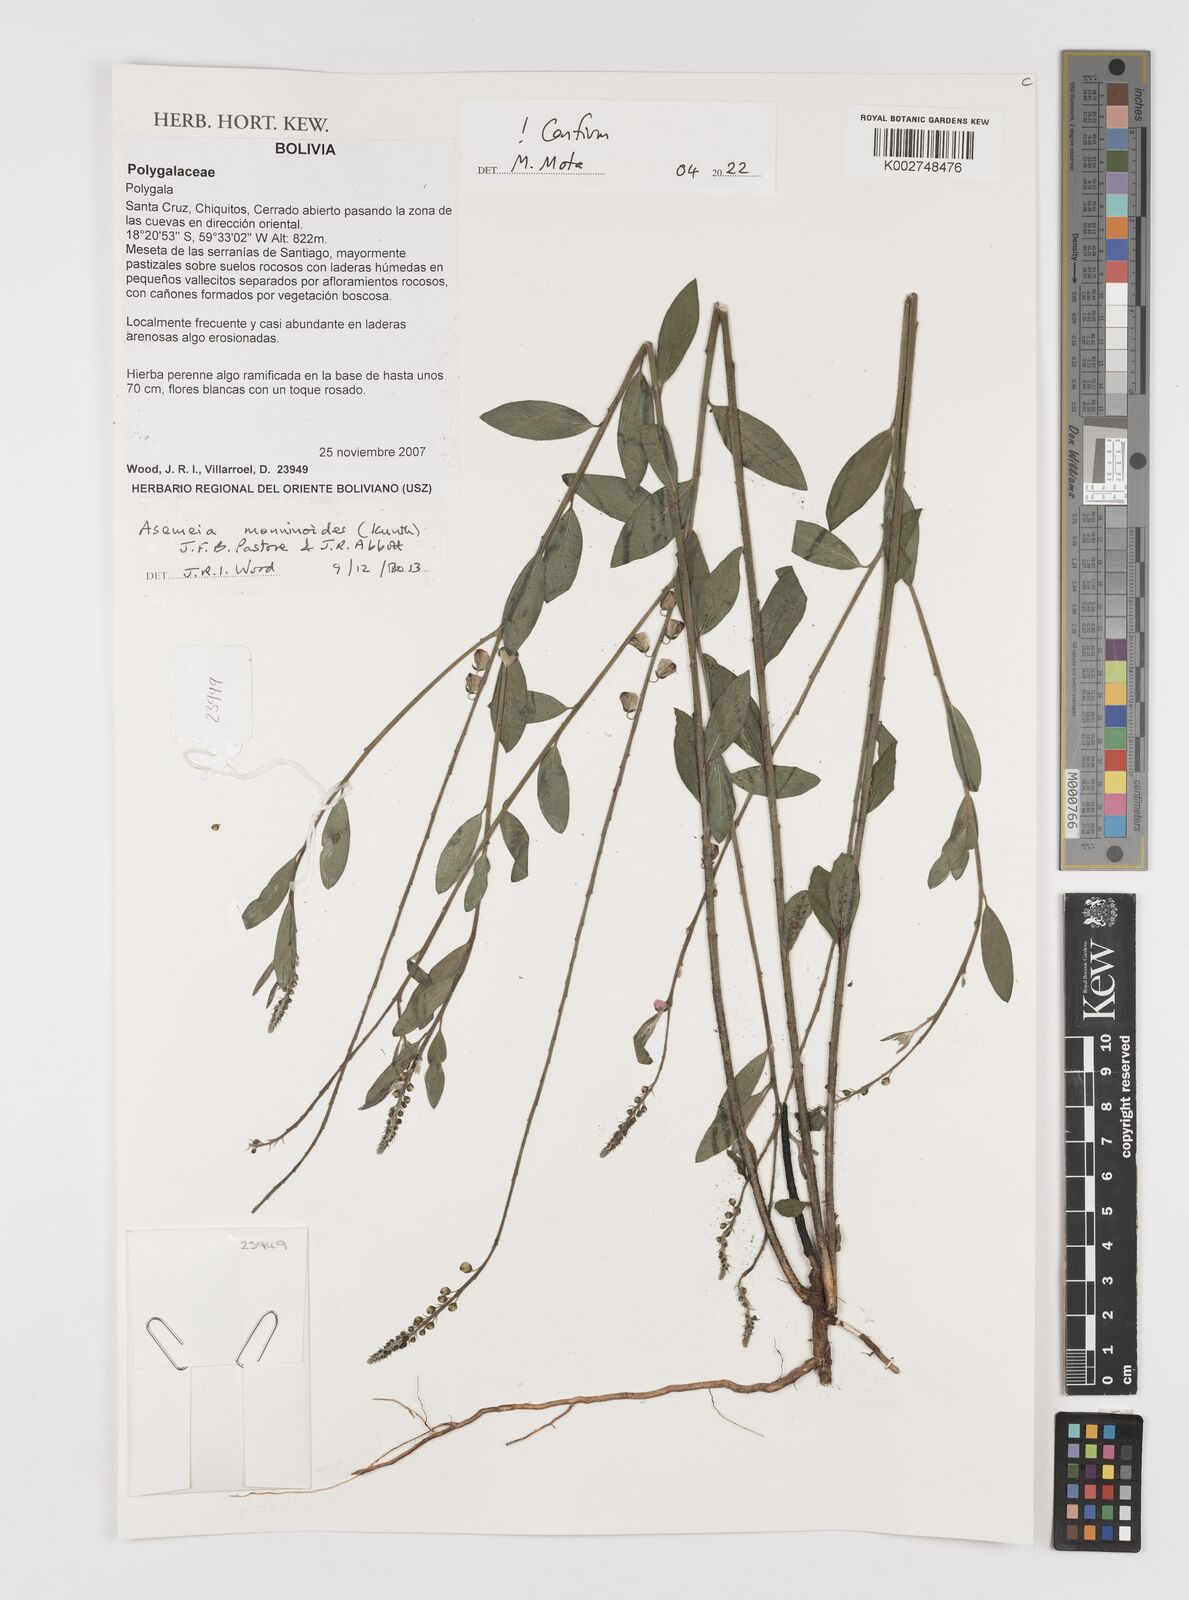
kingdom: Plantae
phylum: Tracheophyta
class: Magnoliopsida
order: Fabales
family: Polygalaceae
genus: Asemeia
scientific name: Asemeia monninoides
